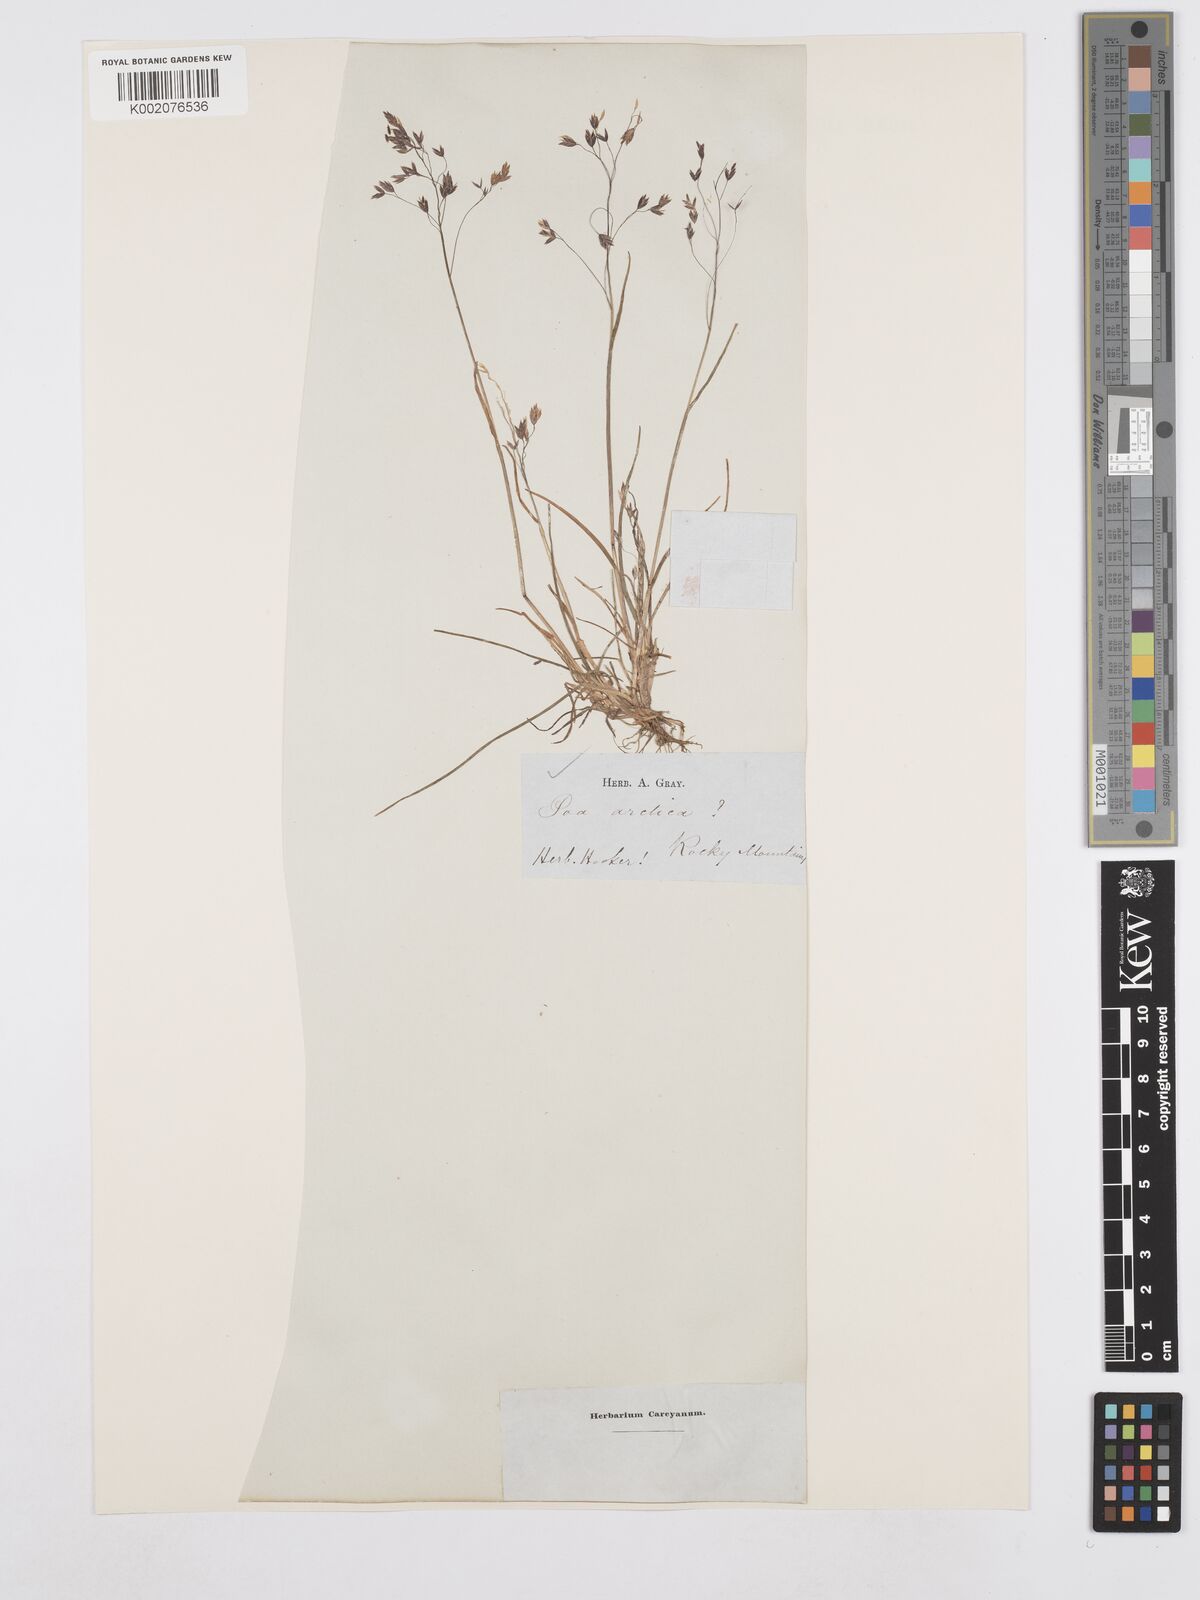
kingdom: Plantae
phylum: Tracheophyta
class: Liliopsida
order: Poales
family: Poaceae
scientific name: Poaceae
